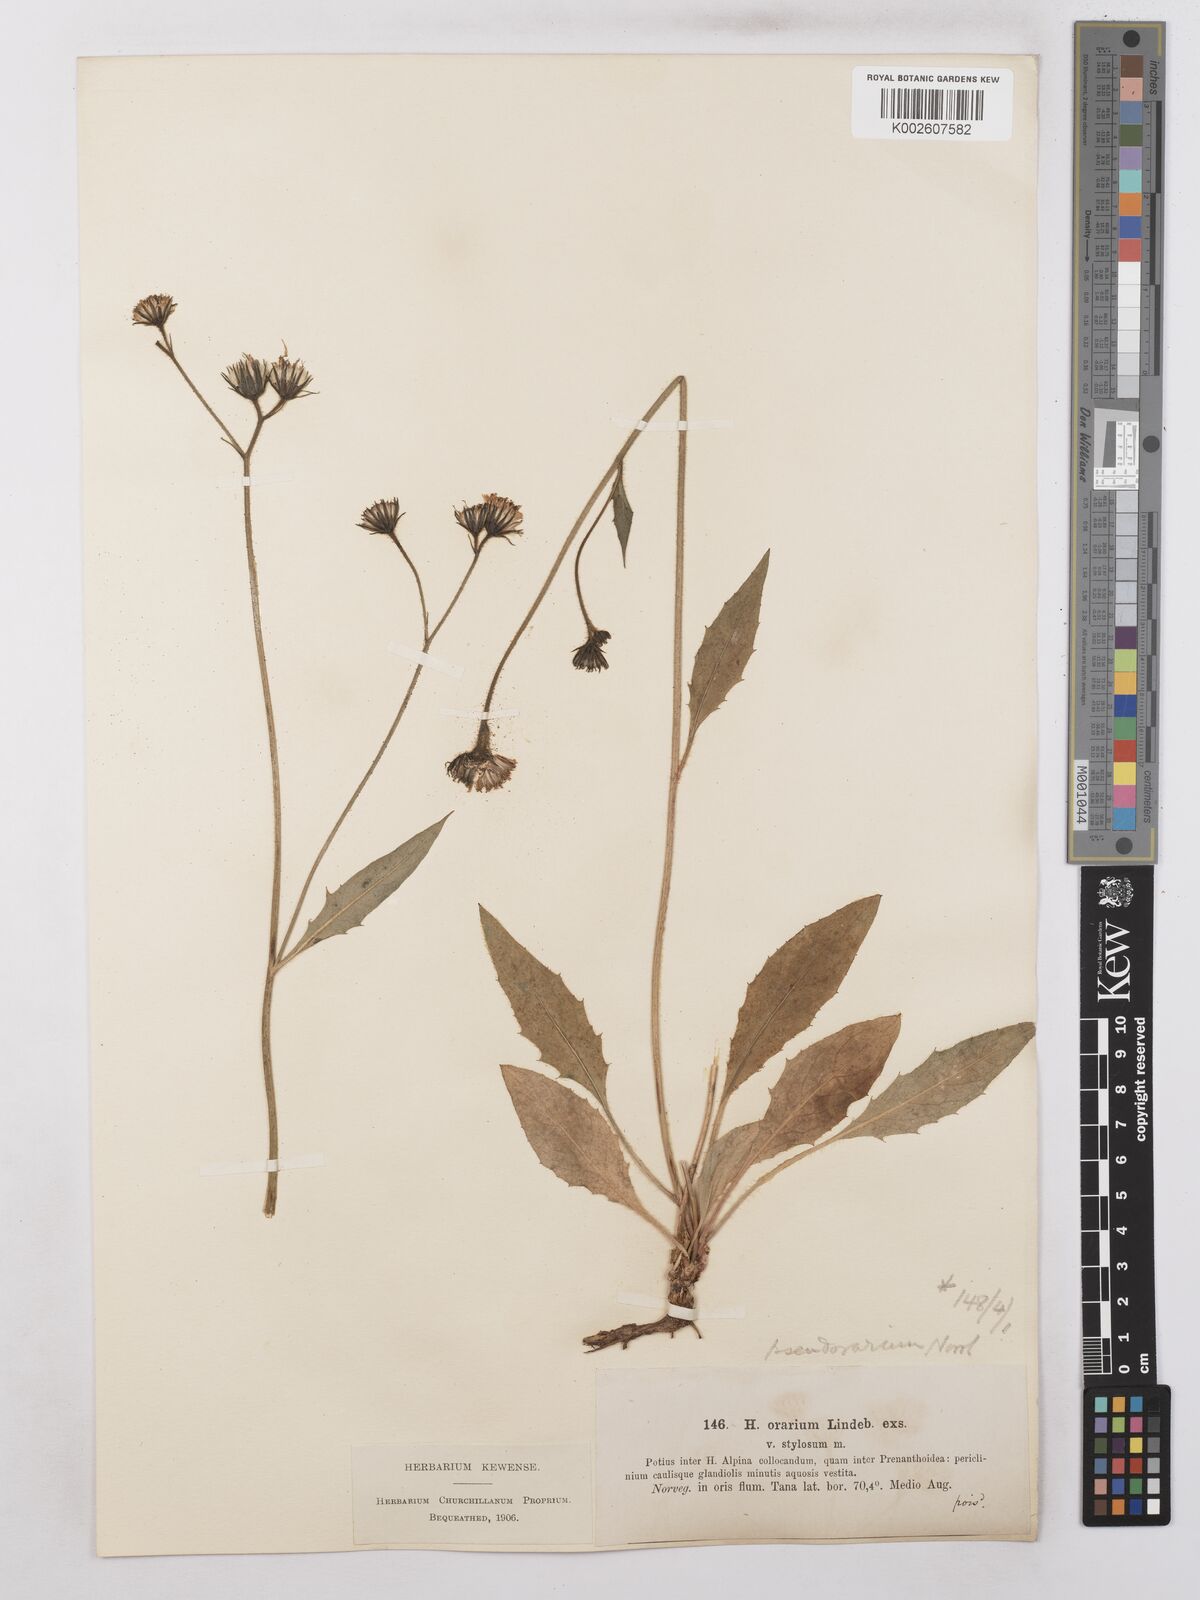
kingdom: Plantae
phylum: Tracheophyta
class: Magnoliopsida
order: Asterales
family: Asteraceae
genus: Hieracium
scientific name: Hieracium subramosum
